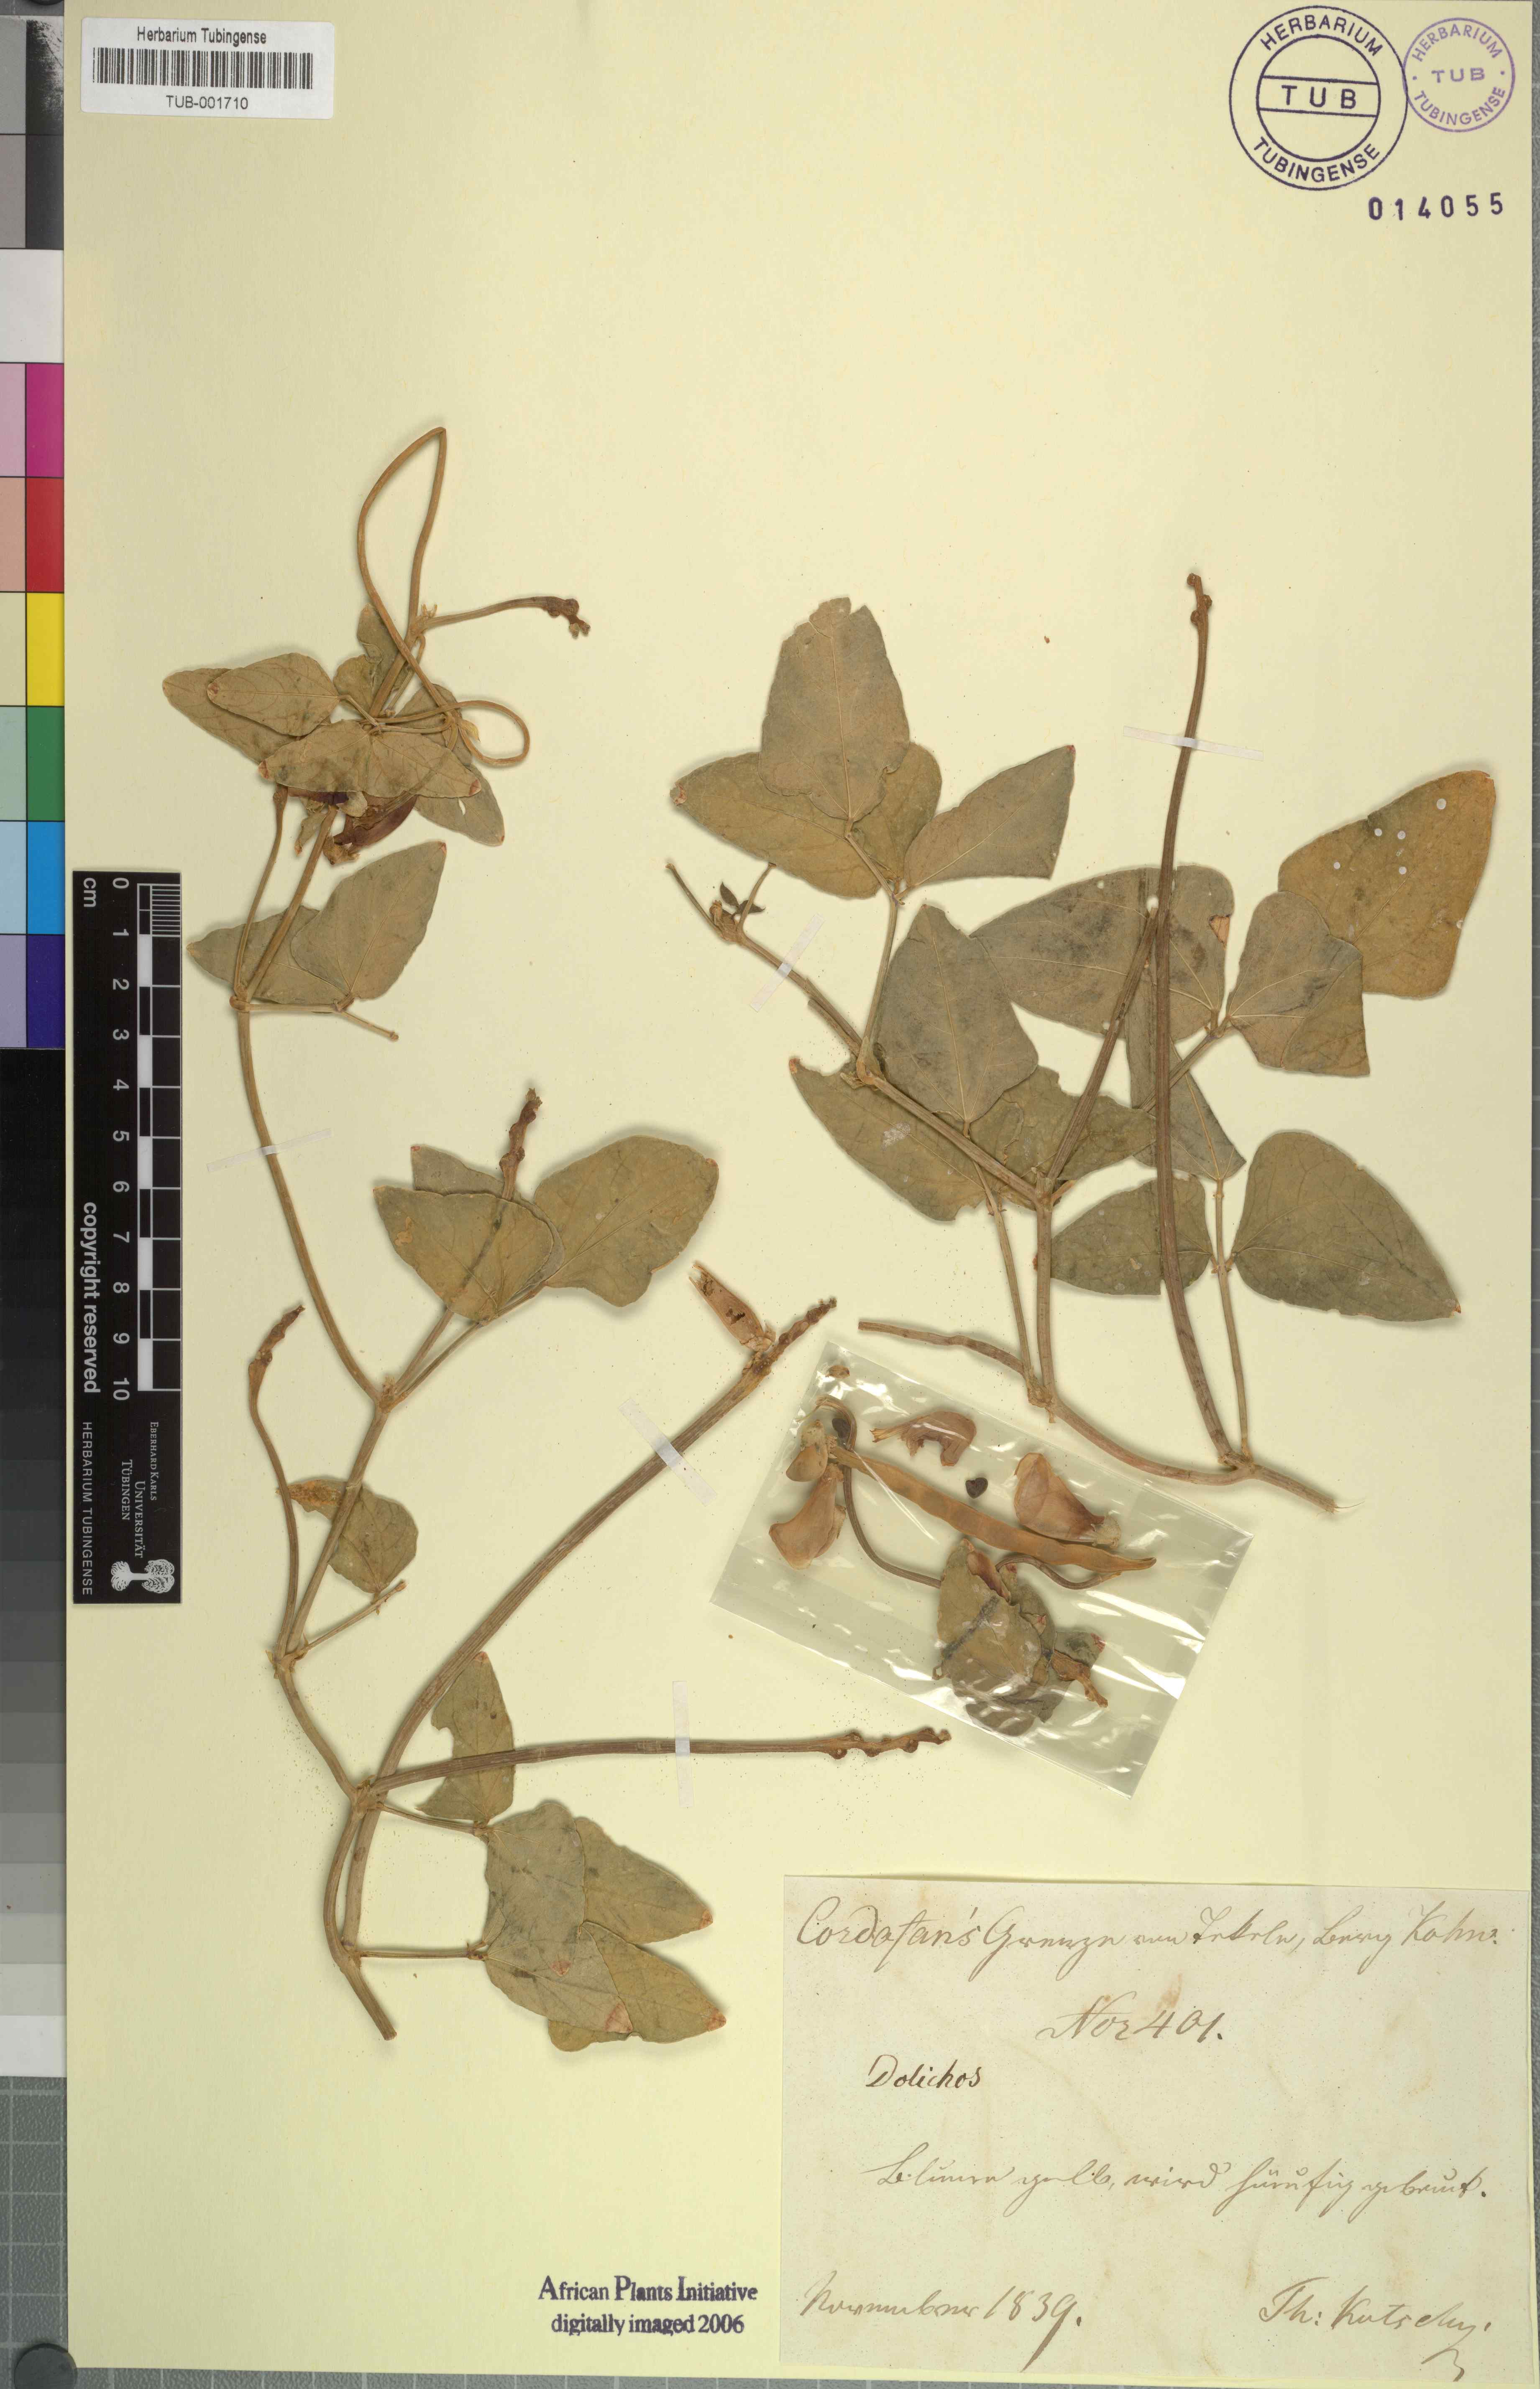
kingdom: Plantae
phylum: Tracheophyta
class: Magnoliopsida
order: Fabales
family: Fabaceae
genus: Dolichos
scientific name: Dolichos
